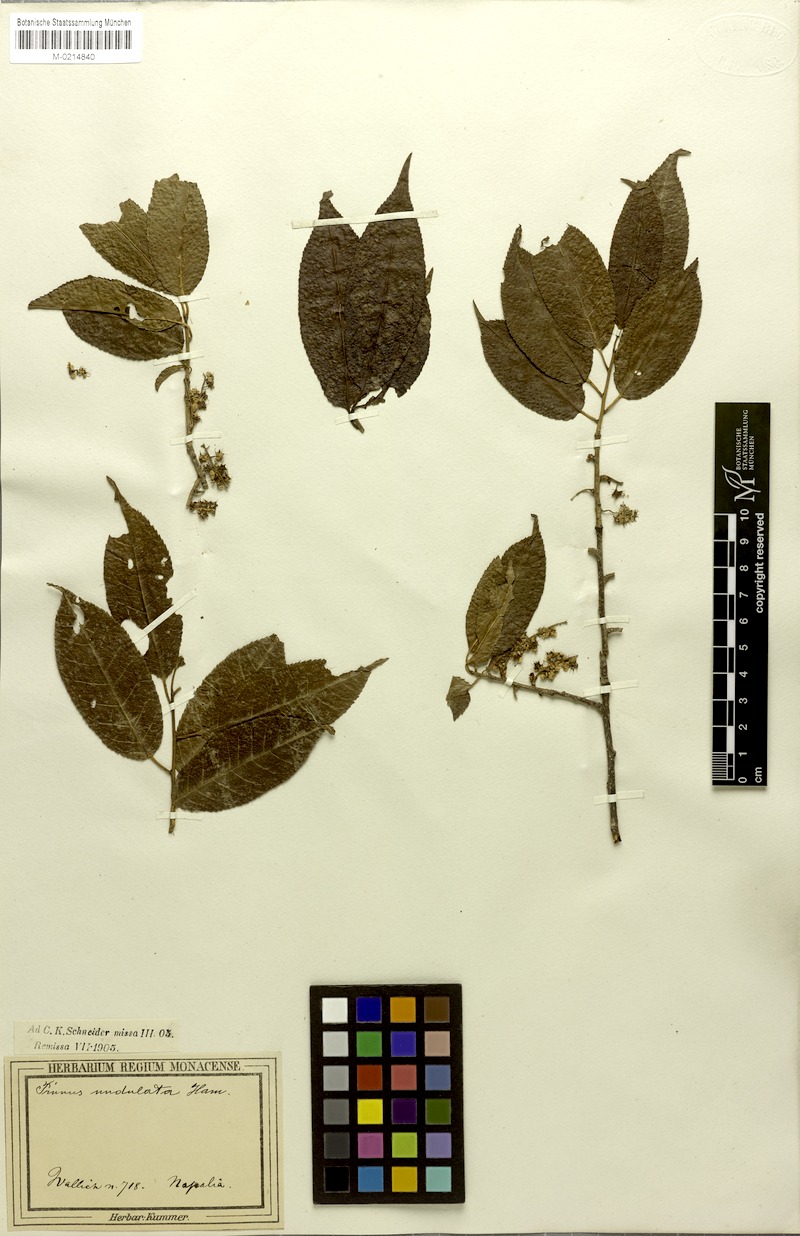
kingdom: Plantae
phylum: Tracheophyta
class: Magnoliopsida
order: Rosales
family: Rosaceae
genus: Prunus
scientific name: Prunus buergeriana
